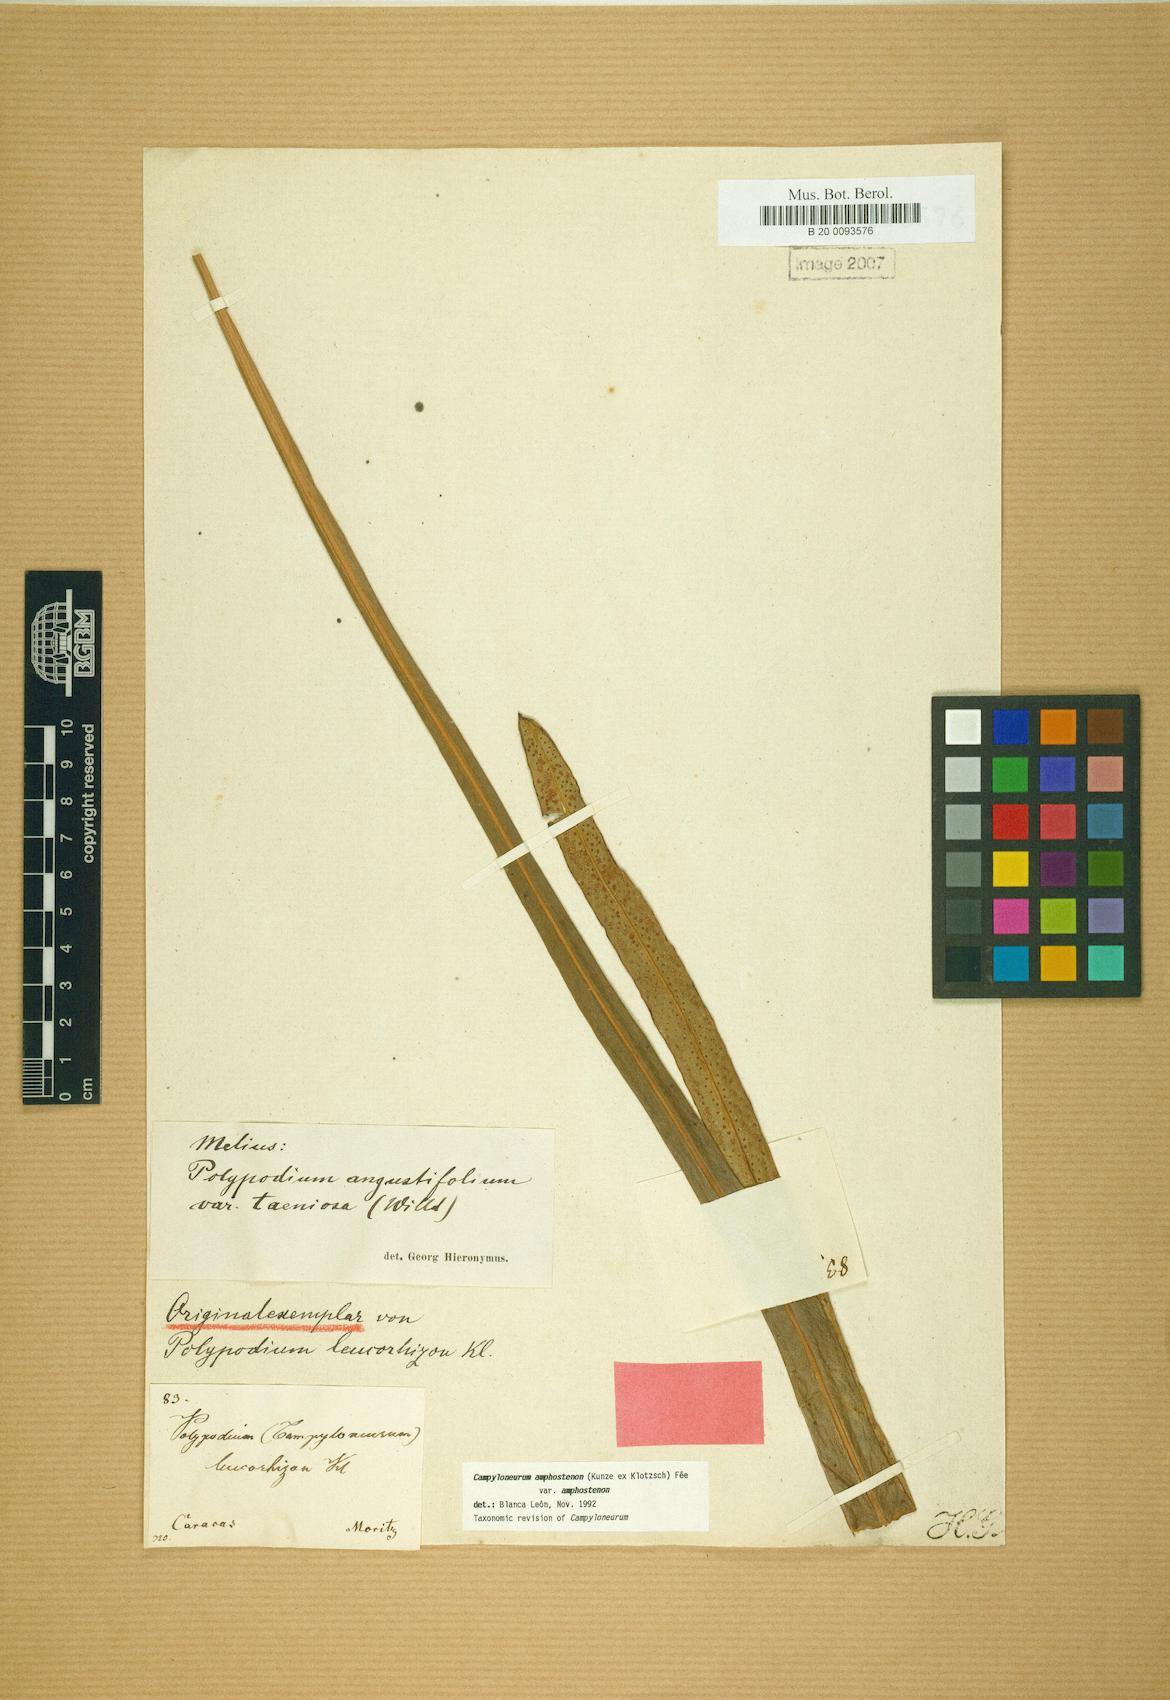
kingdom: Plantae
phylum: Tracheophyta
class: Polypodiopsida
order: Polypodiales
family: Polypodiaceae
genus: Campyloneurum
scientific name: Campyloneurum amphostenon
